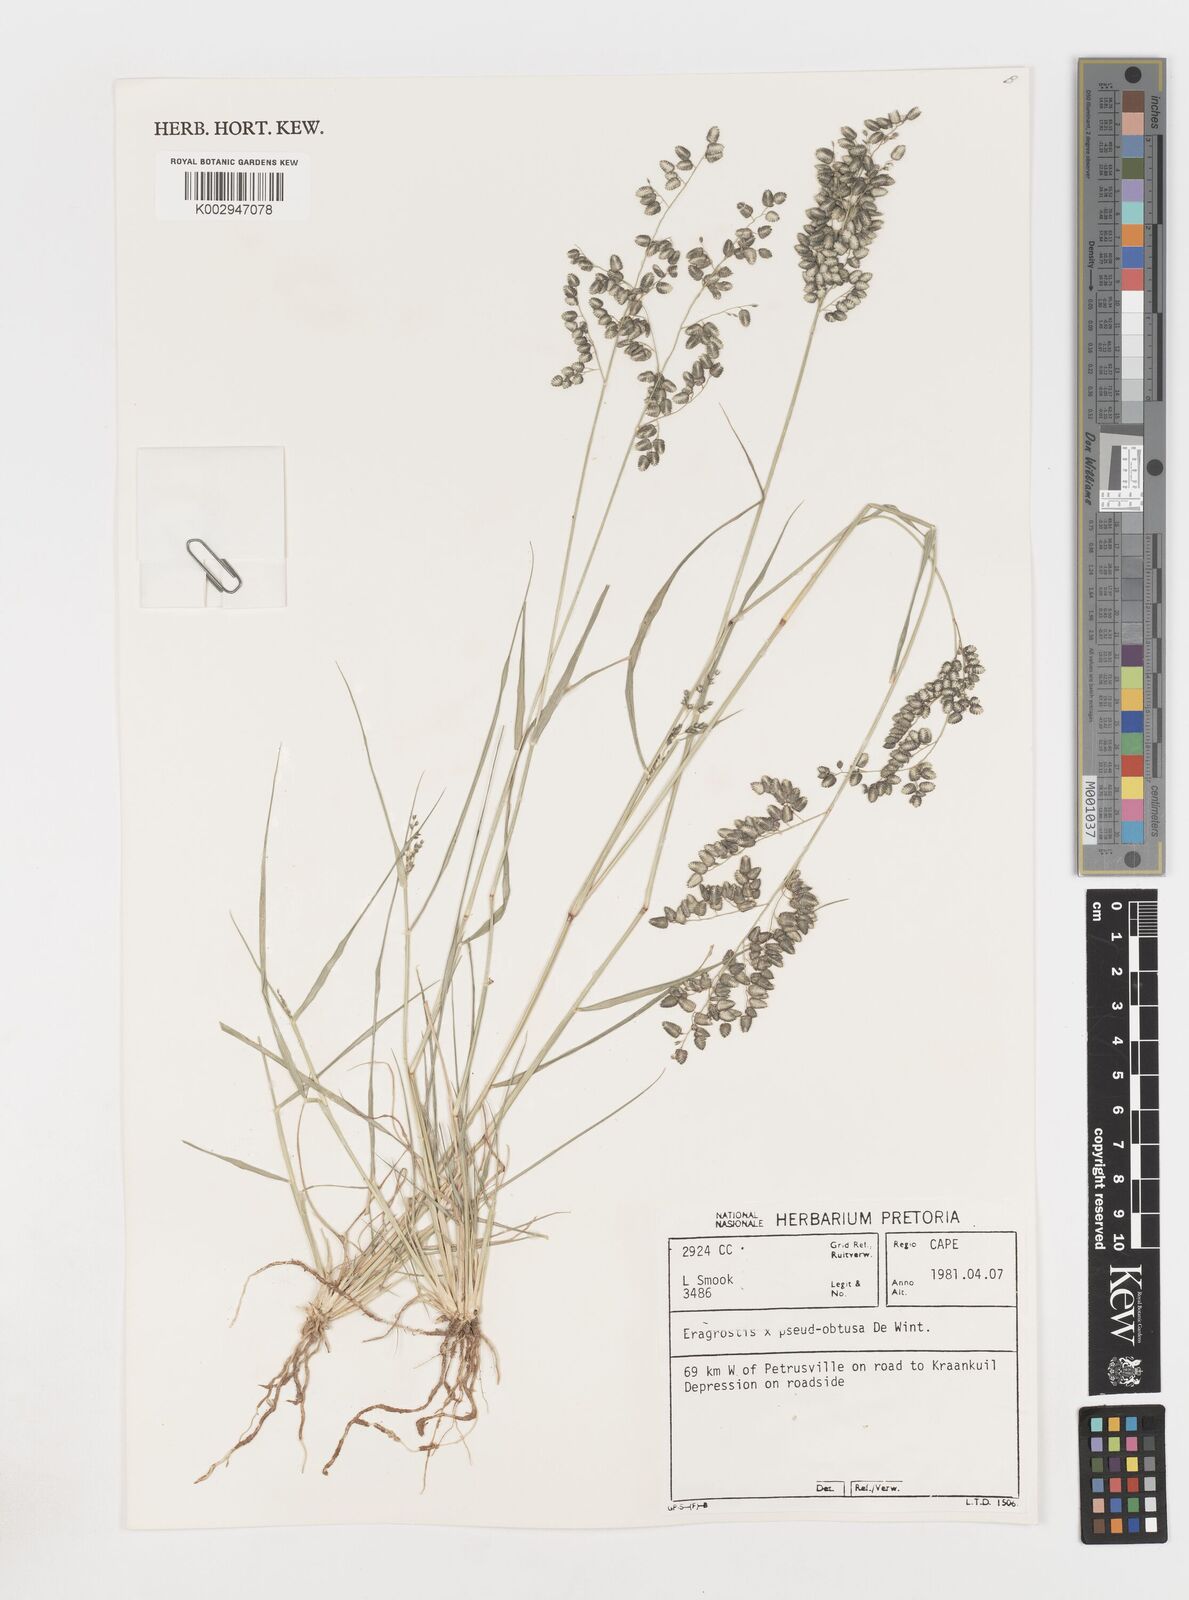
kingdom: Plantae
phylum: Tracheophyta
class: Liliopsida
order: Poales
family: Poaceae
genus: Eragrostis
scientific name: Eragrostis pseudobtusa
